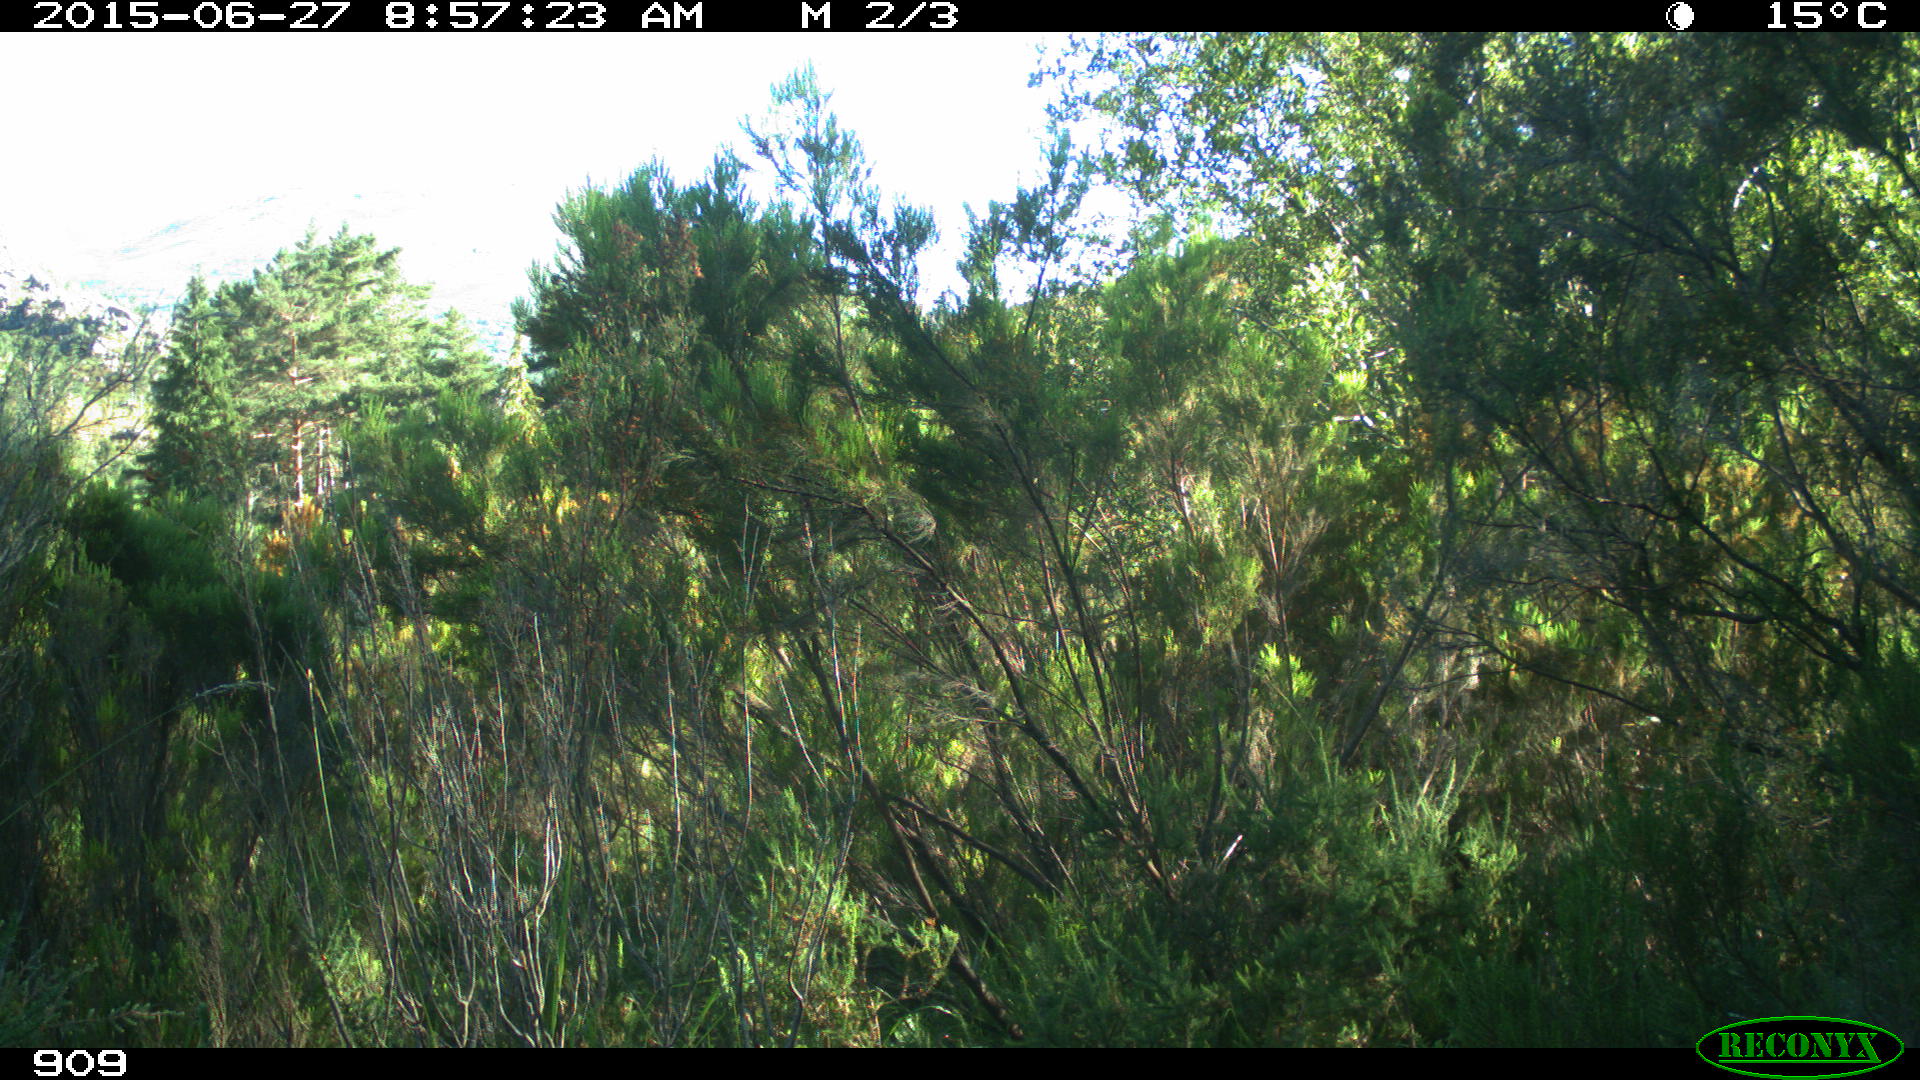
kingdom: Animalia
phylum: Chordata
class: Mammalia
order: Artiodactyla
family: Bovidae
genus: Bos
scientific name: Bos taurus
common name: Domesticated cattle
